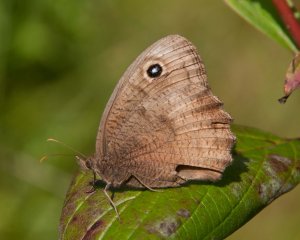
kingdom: Animalia
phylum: Arthropoda
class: Insecta
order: Lepidoptera
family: Nymphalidae
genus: Cercyonis
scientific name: Cercyonis pegala
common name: Common Wood-Nymph
